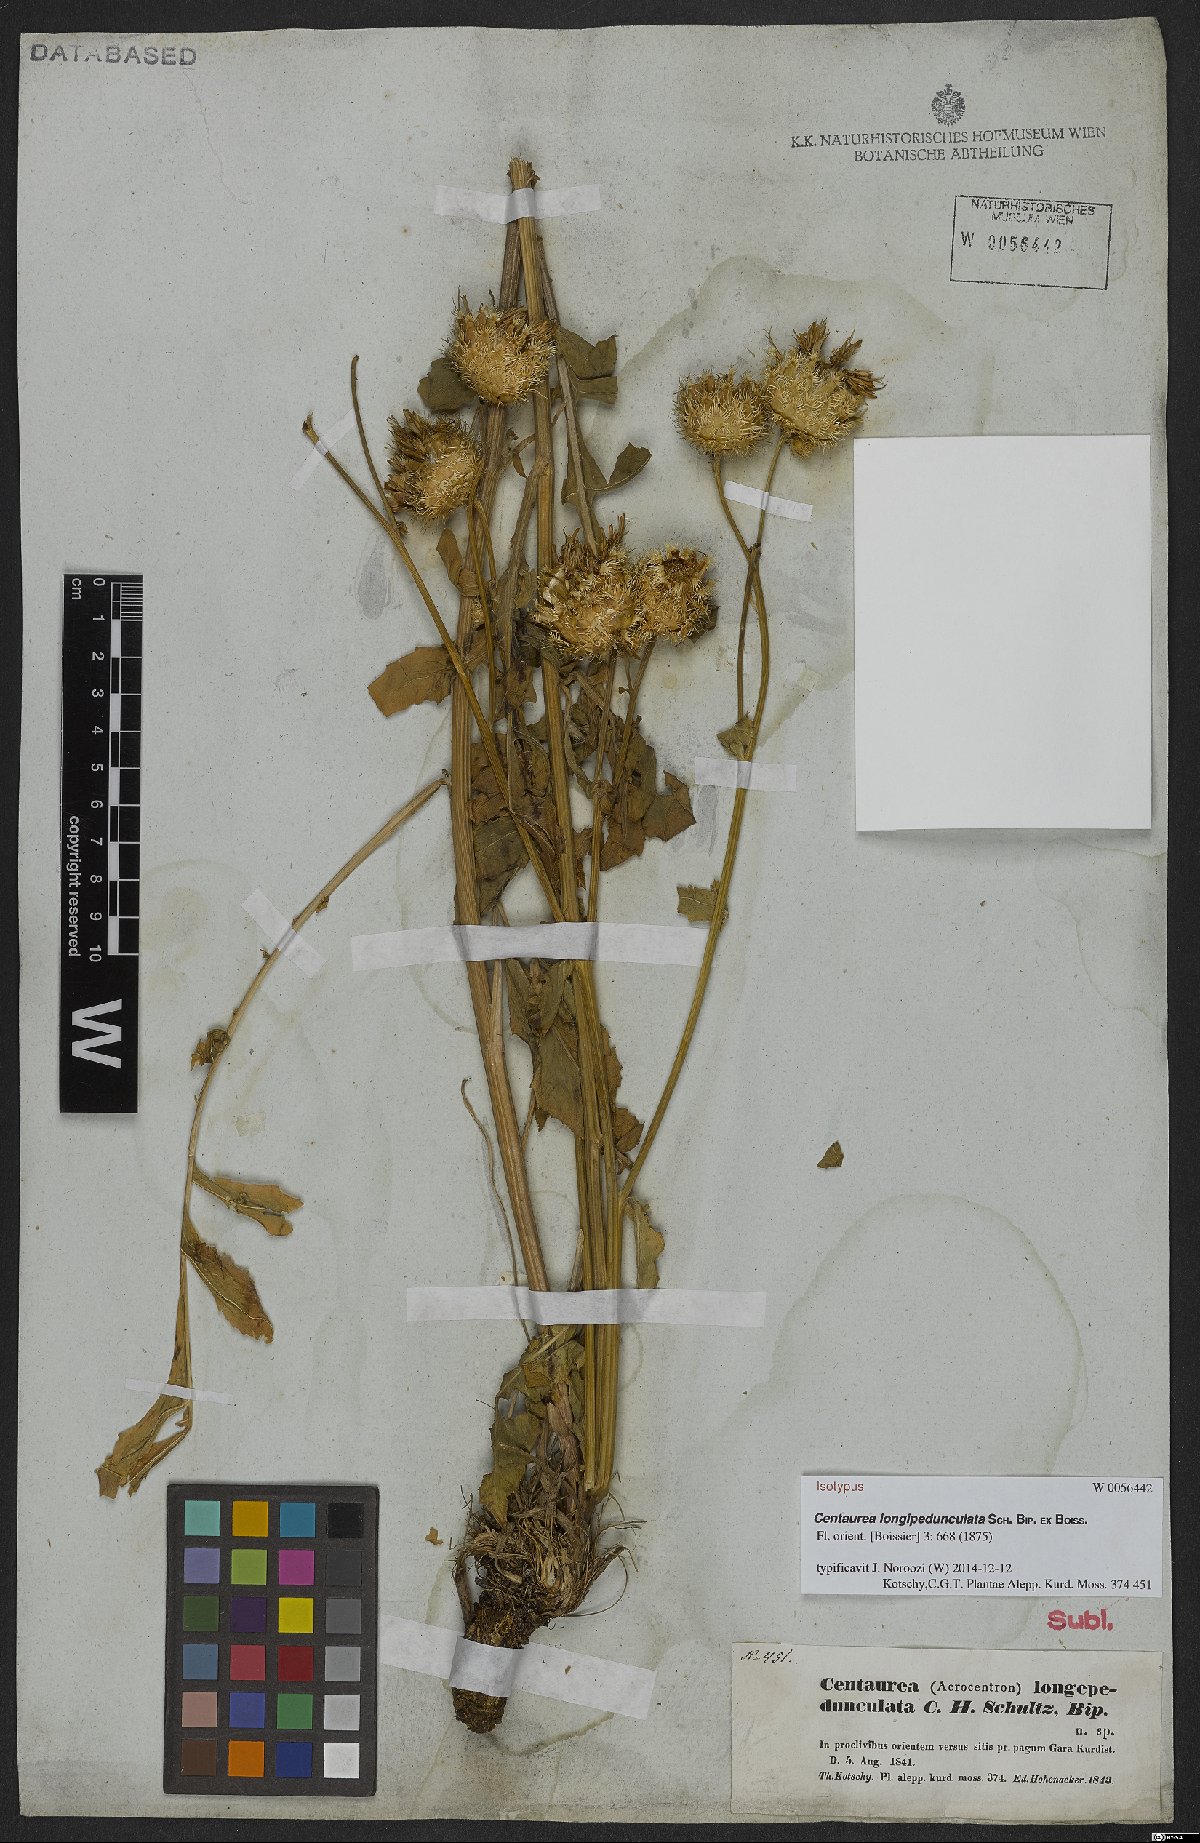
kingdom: Plantae
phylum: Tracheophyta
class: Magnoliopsida
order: Asterales
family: Asteraceae
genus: Centaurea
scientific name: Centaurea longepedunculata
